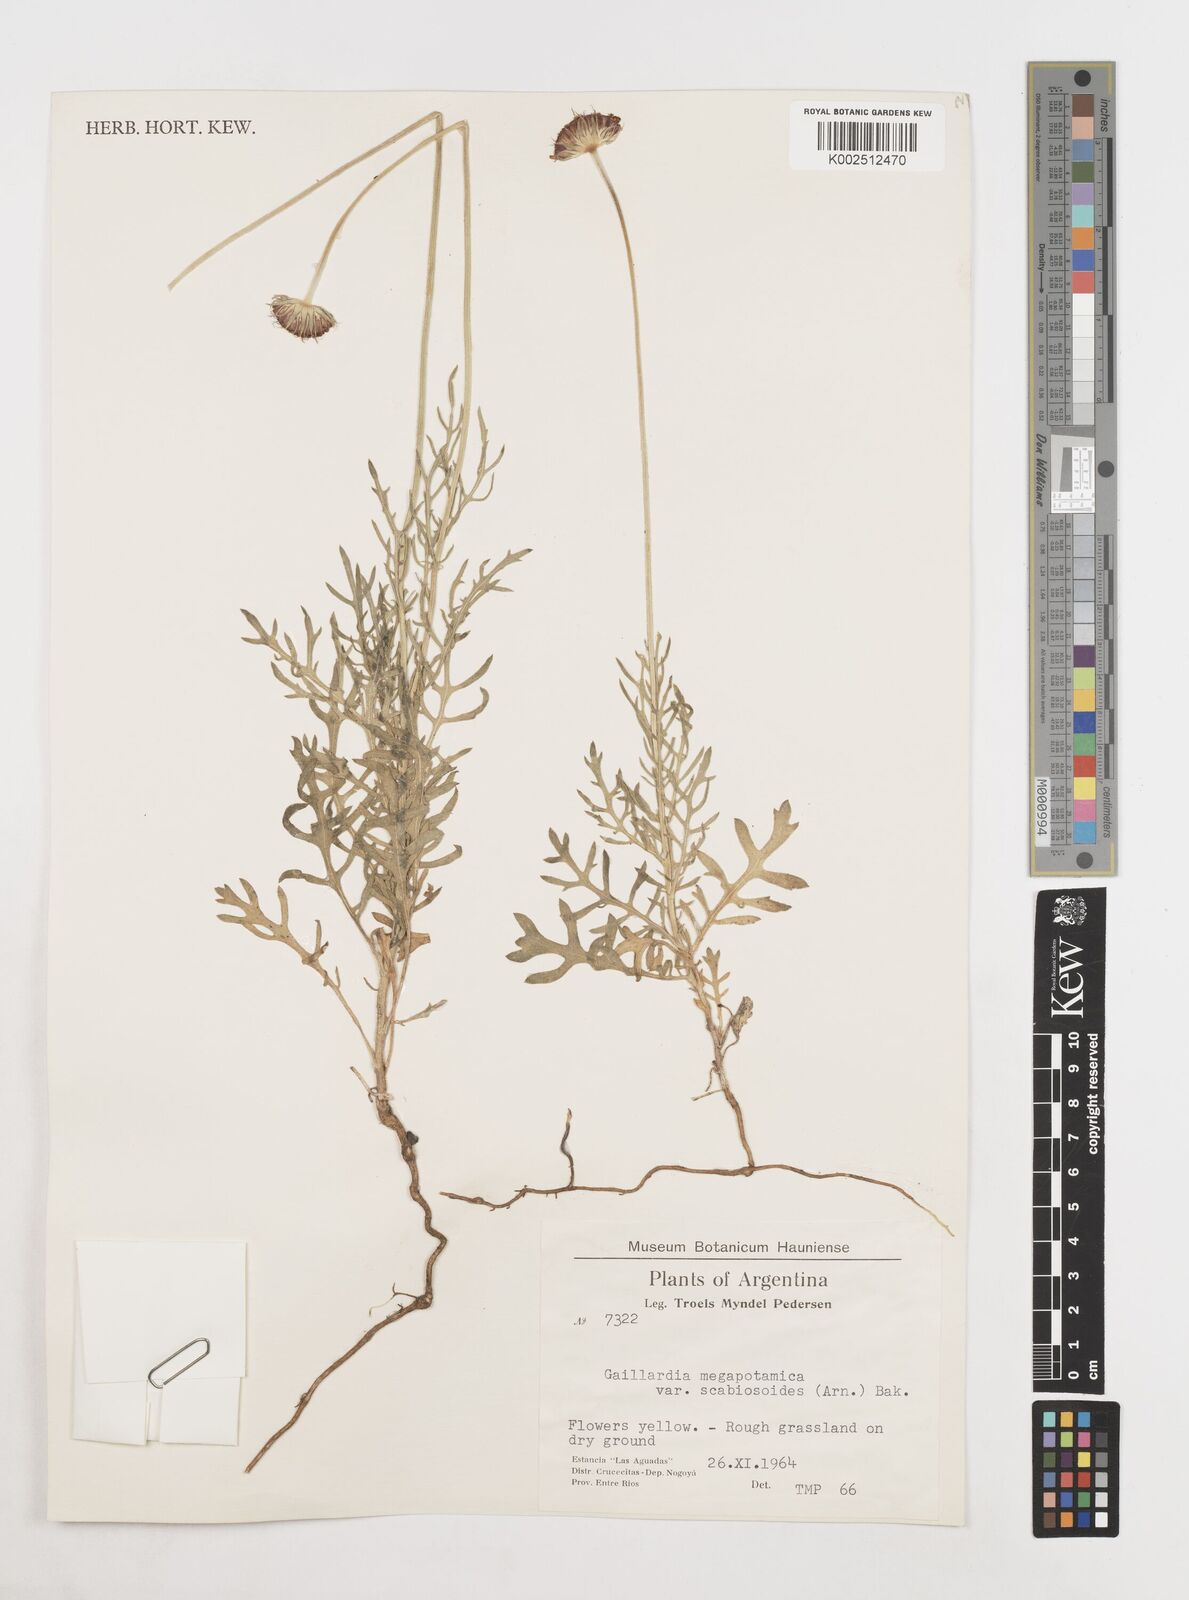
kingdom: Plantae
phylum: Tracheophyta
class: Magnoliopsida
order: Asterales
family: Asteraceae
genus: Gaillardia
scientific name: Gaillardia megapotamica
